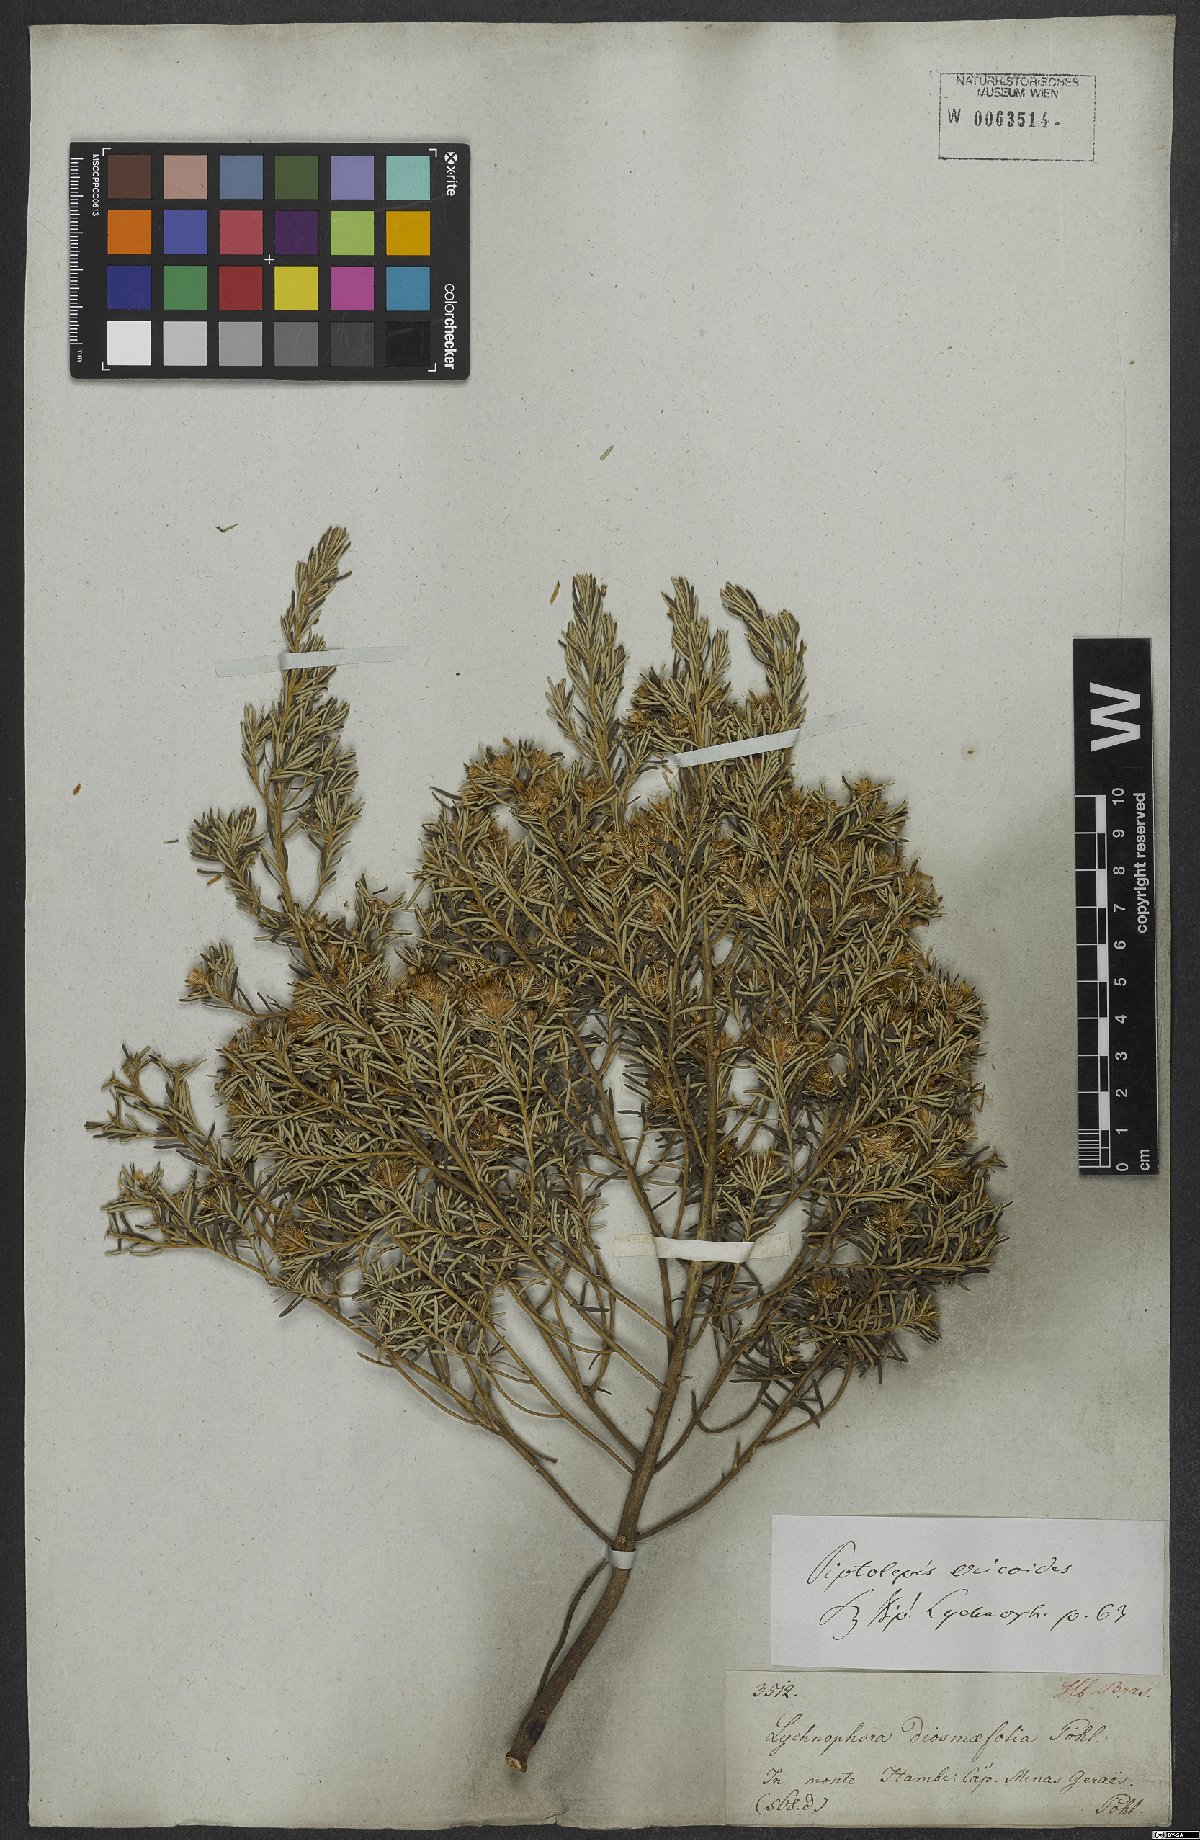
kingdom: Plantae
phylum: Tracheophyta
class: Magnoliopsida
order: Asterales
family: Asteraceae
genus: Piptolepis
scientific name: Piptolepis ericoides
